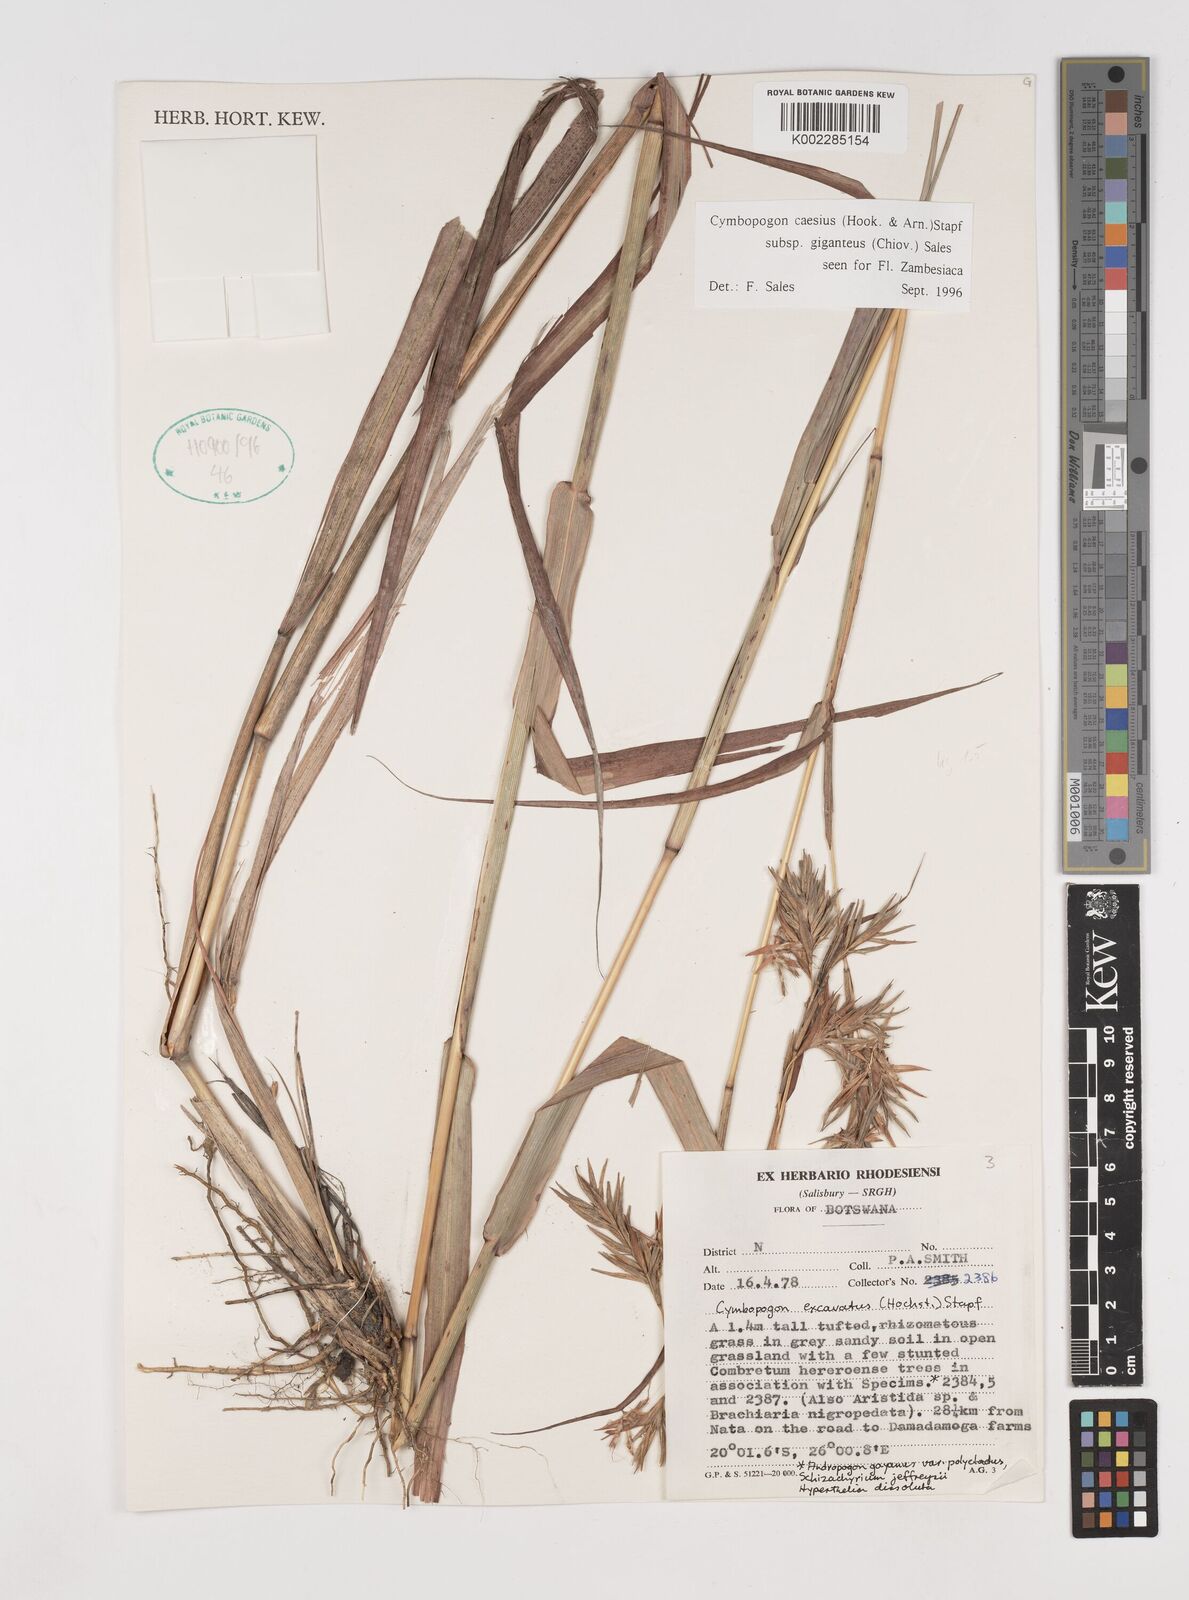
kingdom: Plantae
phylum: Tracheophyta
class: Liliopsida
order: Poales
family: Poaceae
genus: Cymbopogon
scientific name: Cymbopogon giganteus
